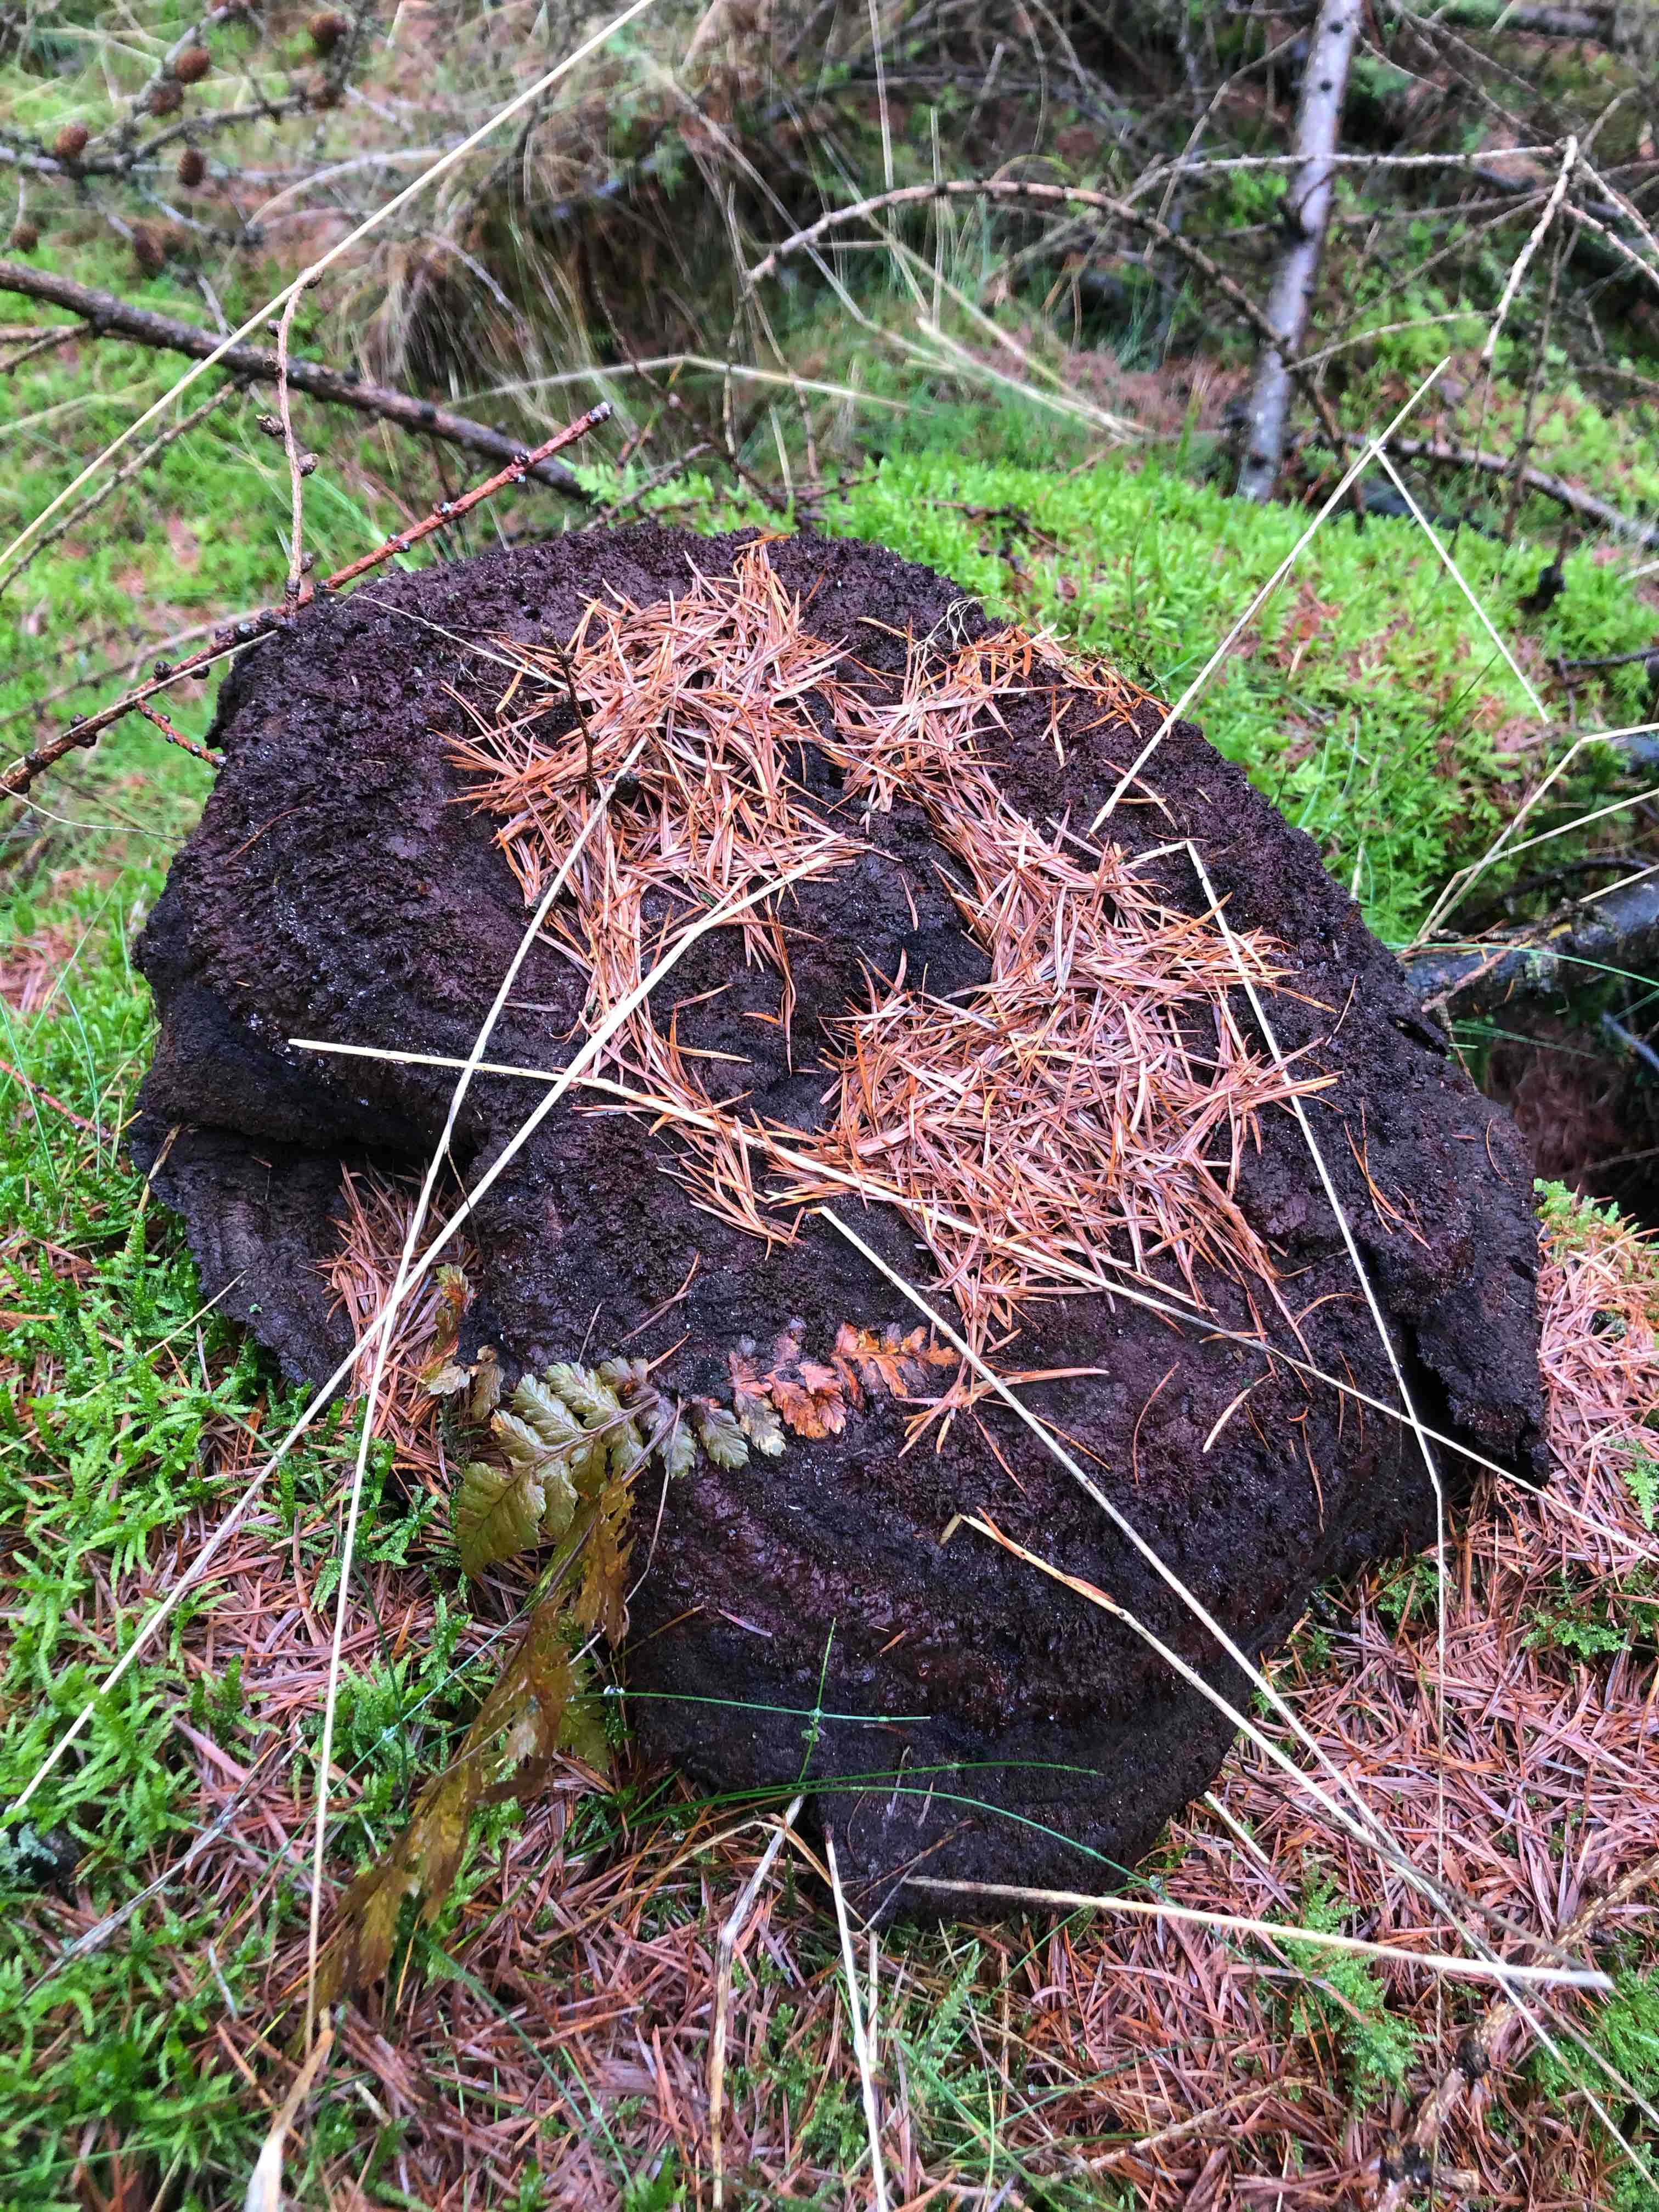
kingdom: Fungi
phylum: Basidiomycota
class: Agaricomycetes
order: Polyporales
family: Laetiporaceae
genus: Phaeolus
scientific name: Phaeolus schweinitzii
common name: brunporesvamp
